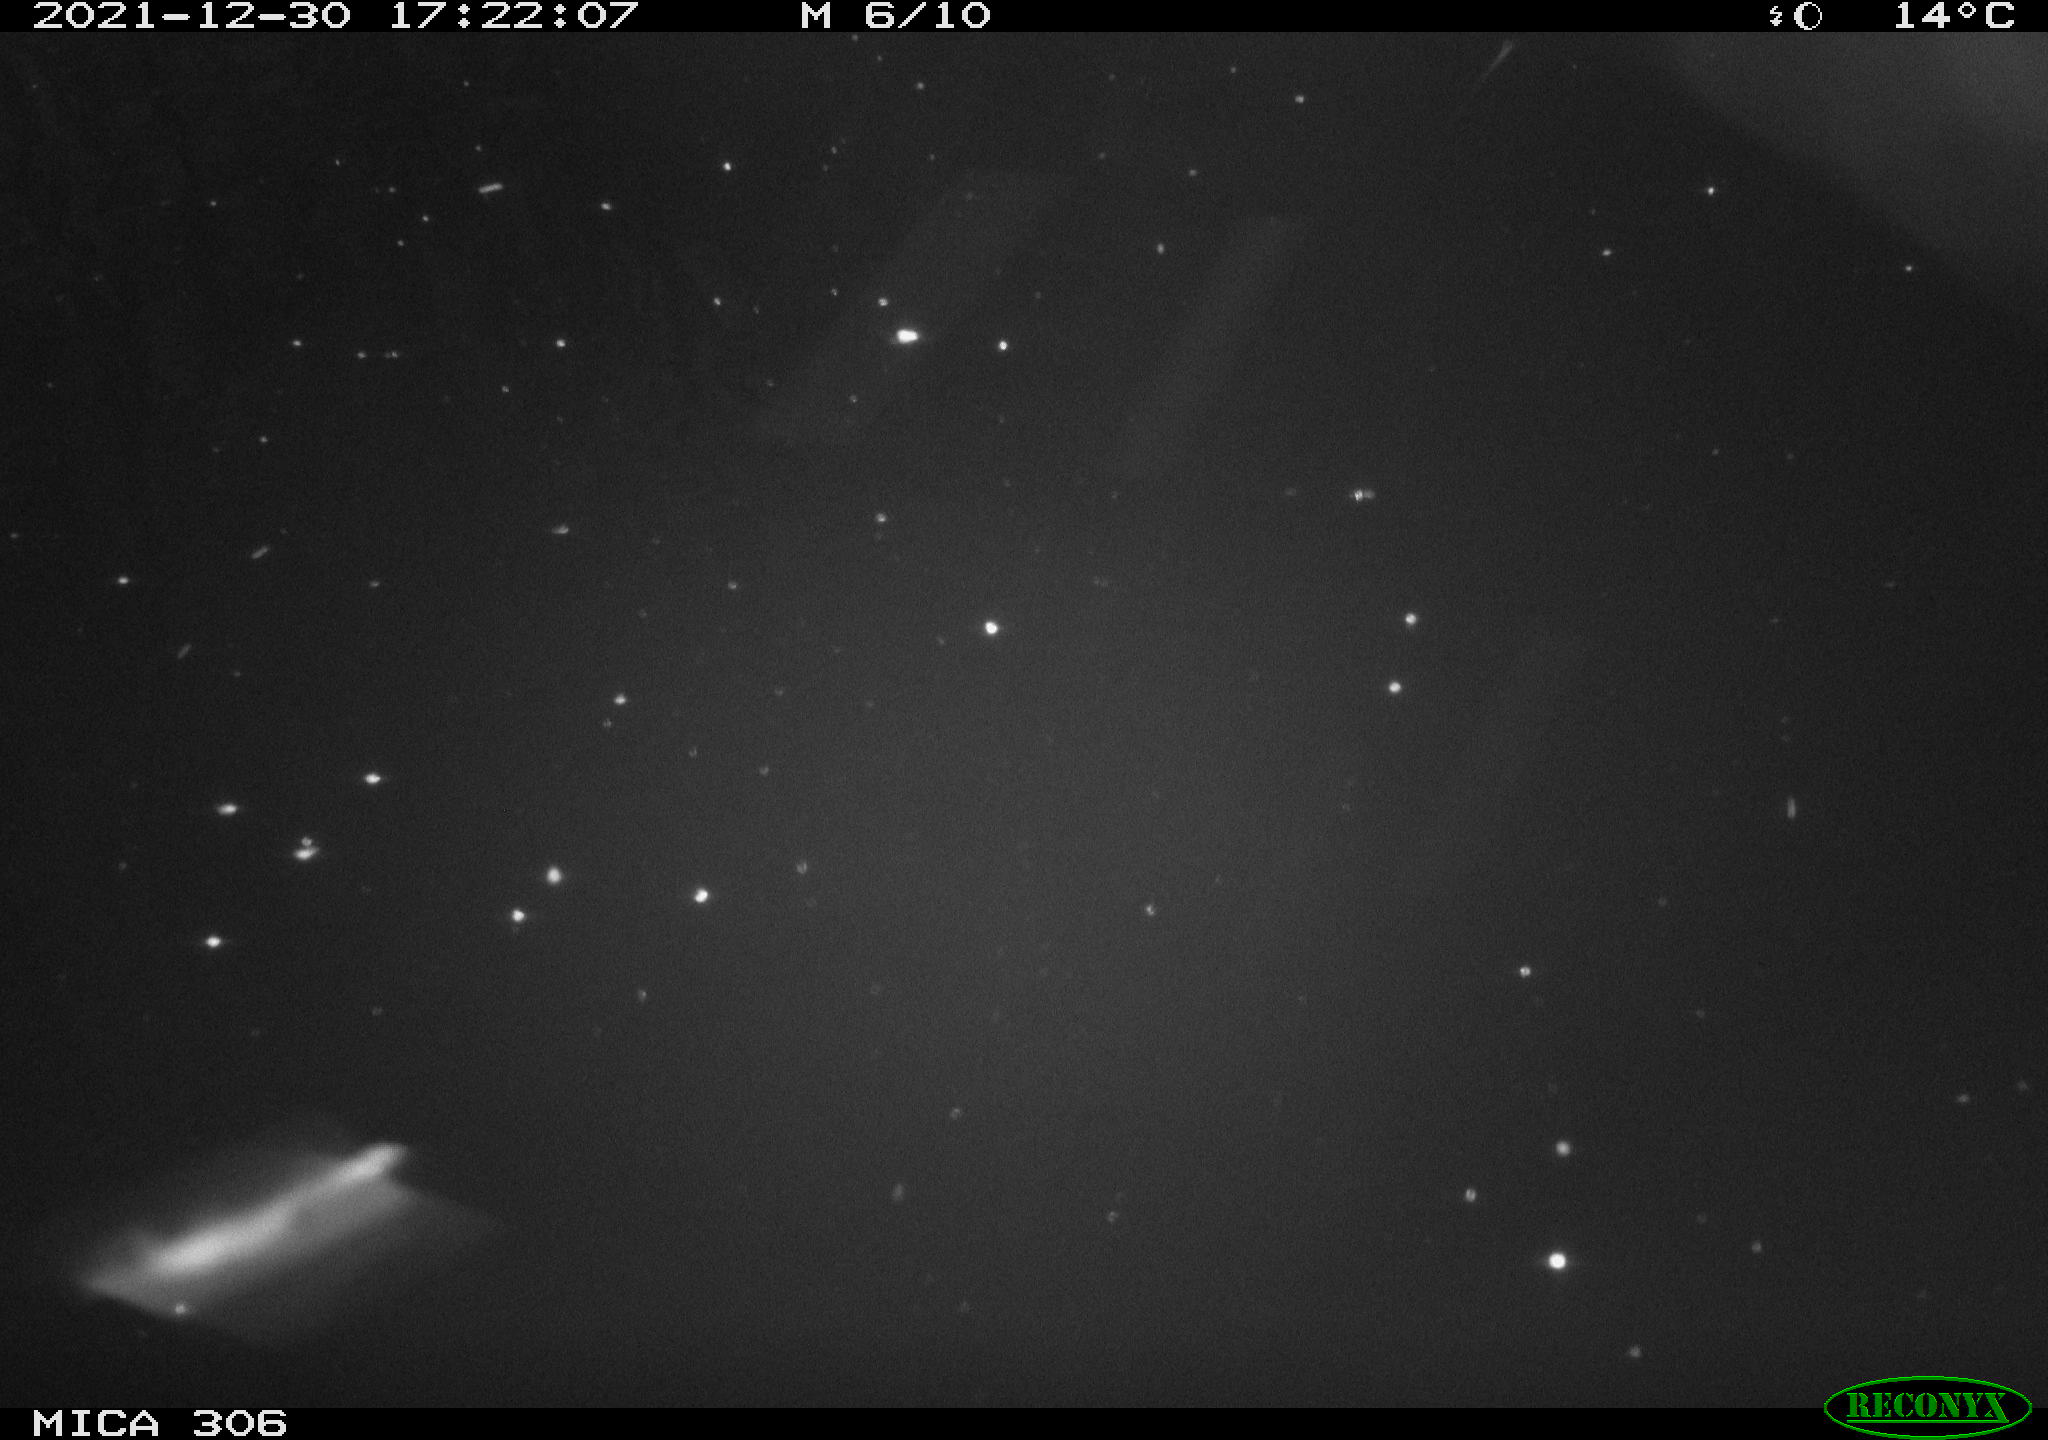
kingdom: Animalia
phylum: Chordata
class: Aves
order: Gruiformes
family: Rallidae
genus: Gallinula
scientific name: Gallinula chloropus
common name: Common moorhen
